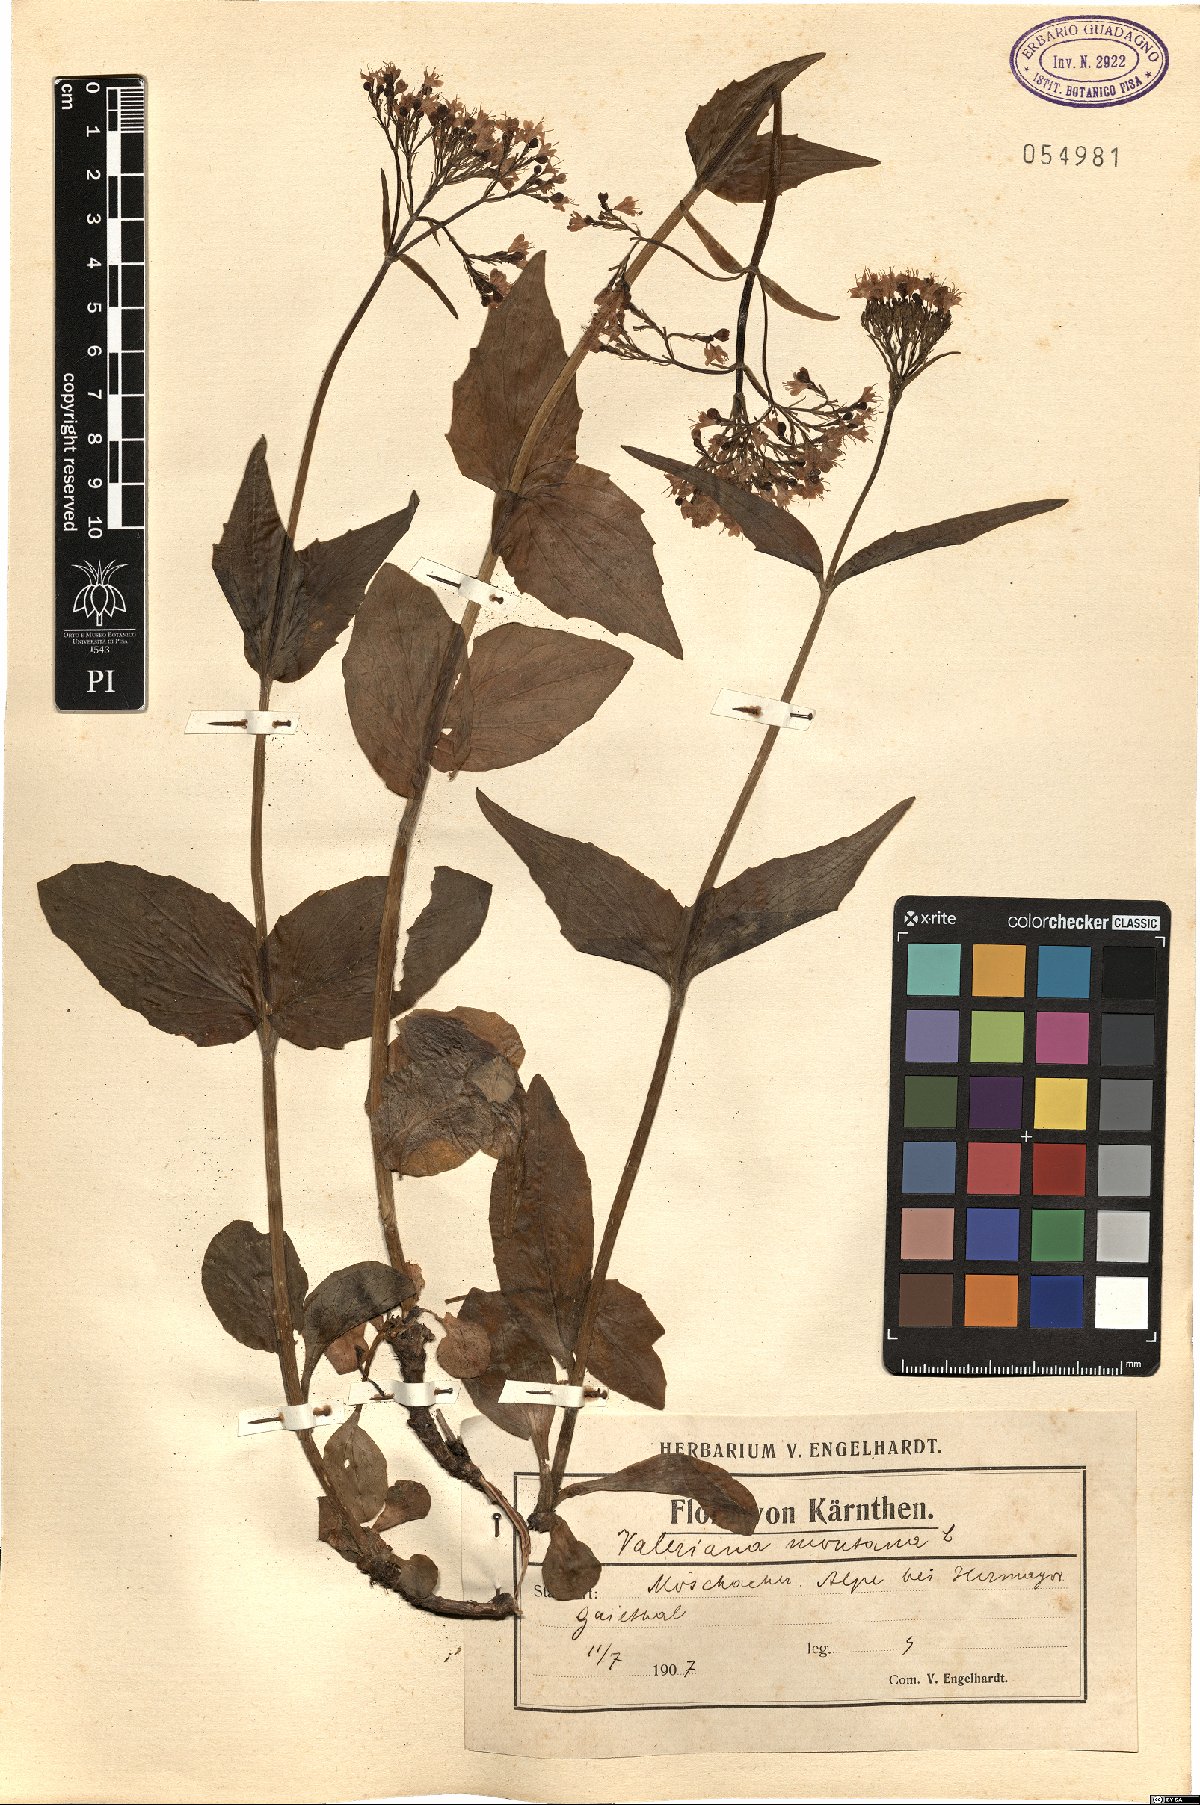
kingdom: Plantae
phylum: Tracheophyta
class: Magnoliopsida
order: Dipsacales
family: Caprifoliaceae
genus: Valeriana
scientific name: Valeriana montana
